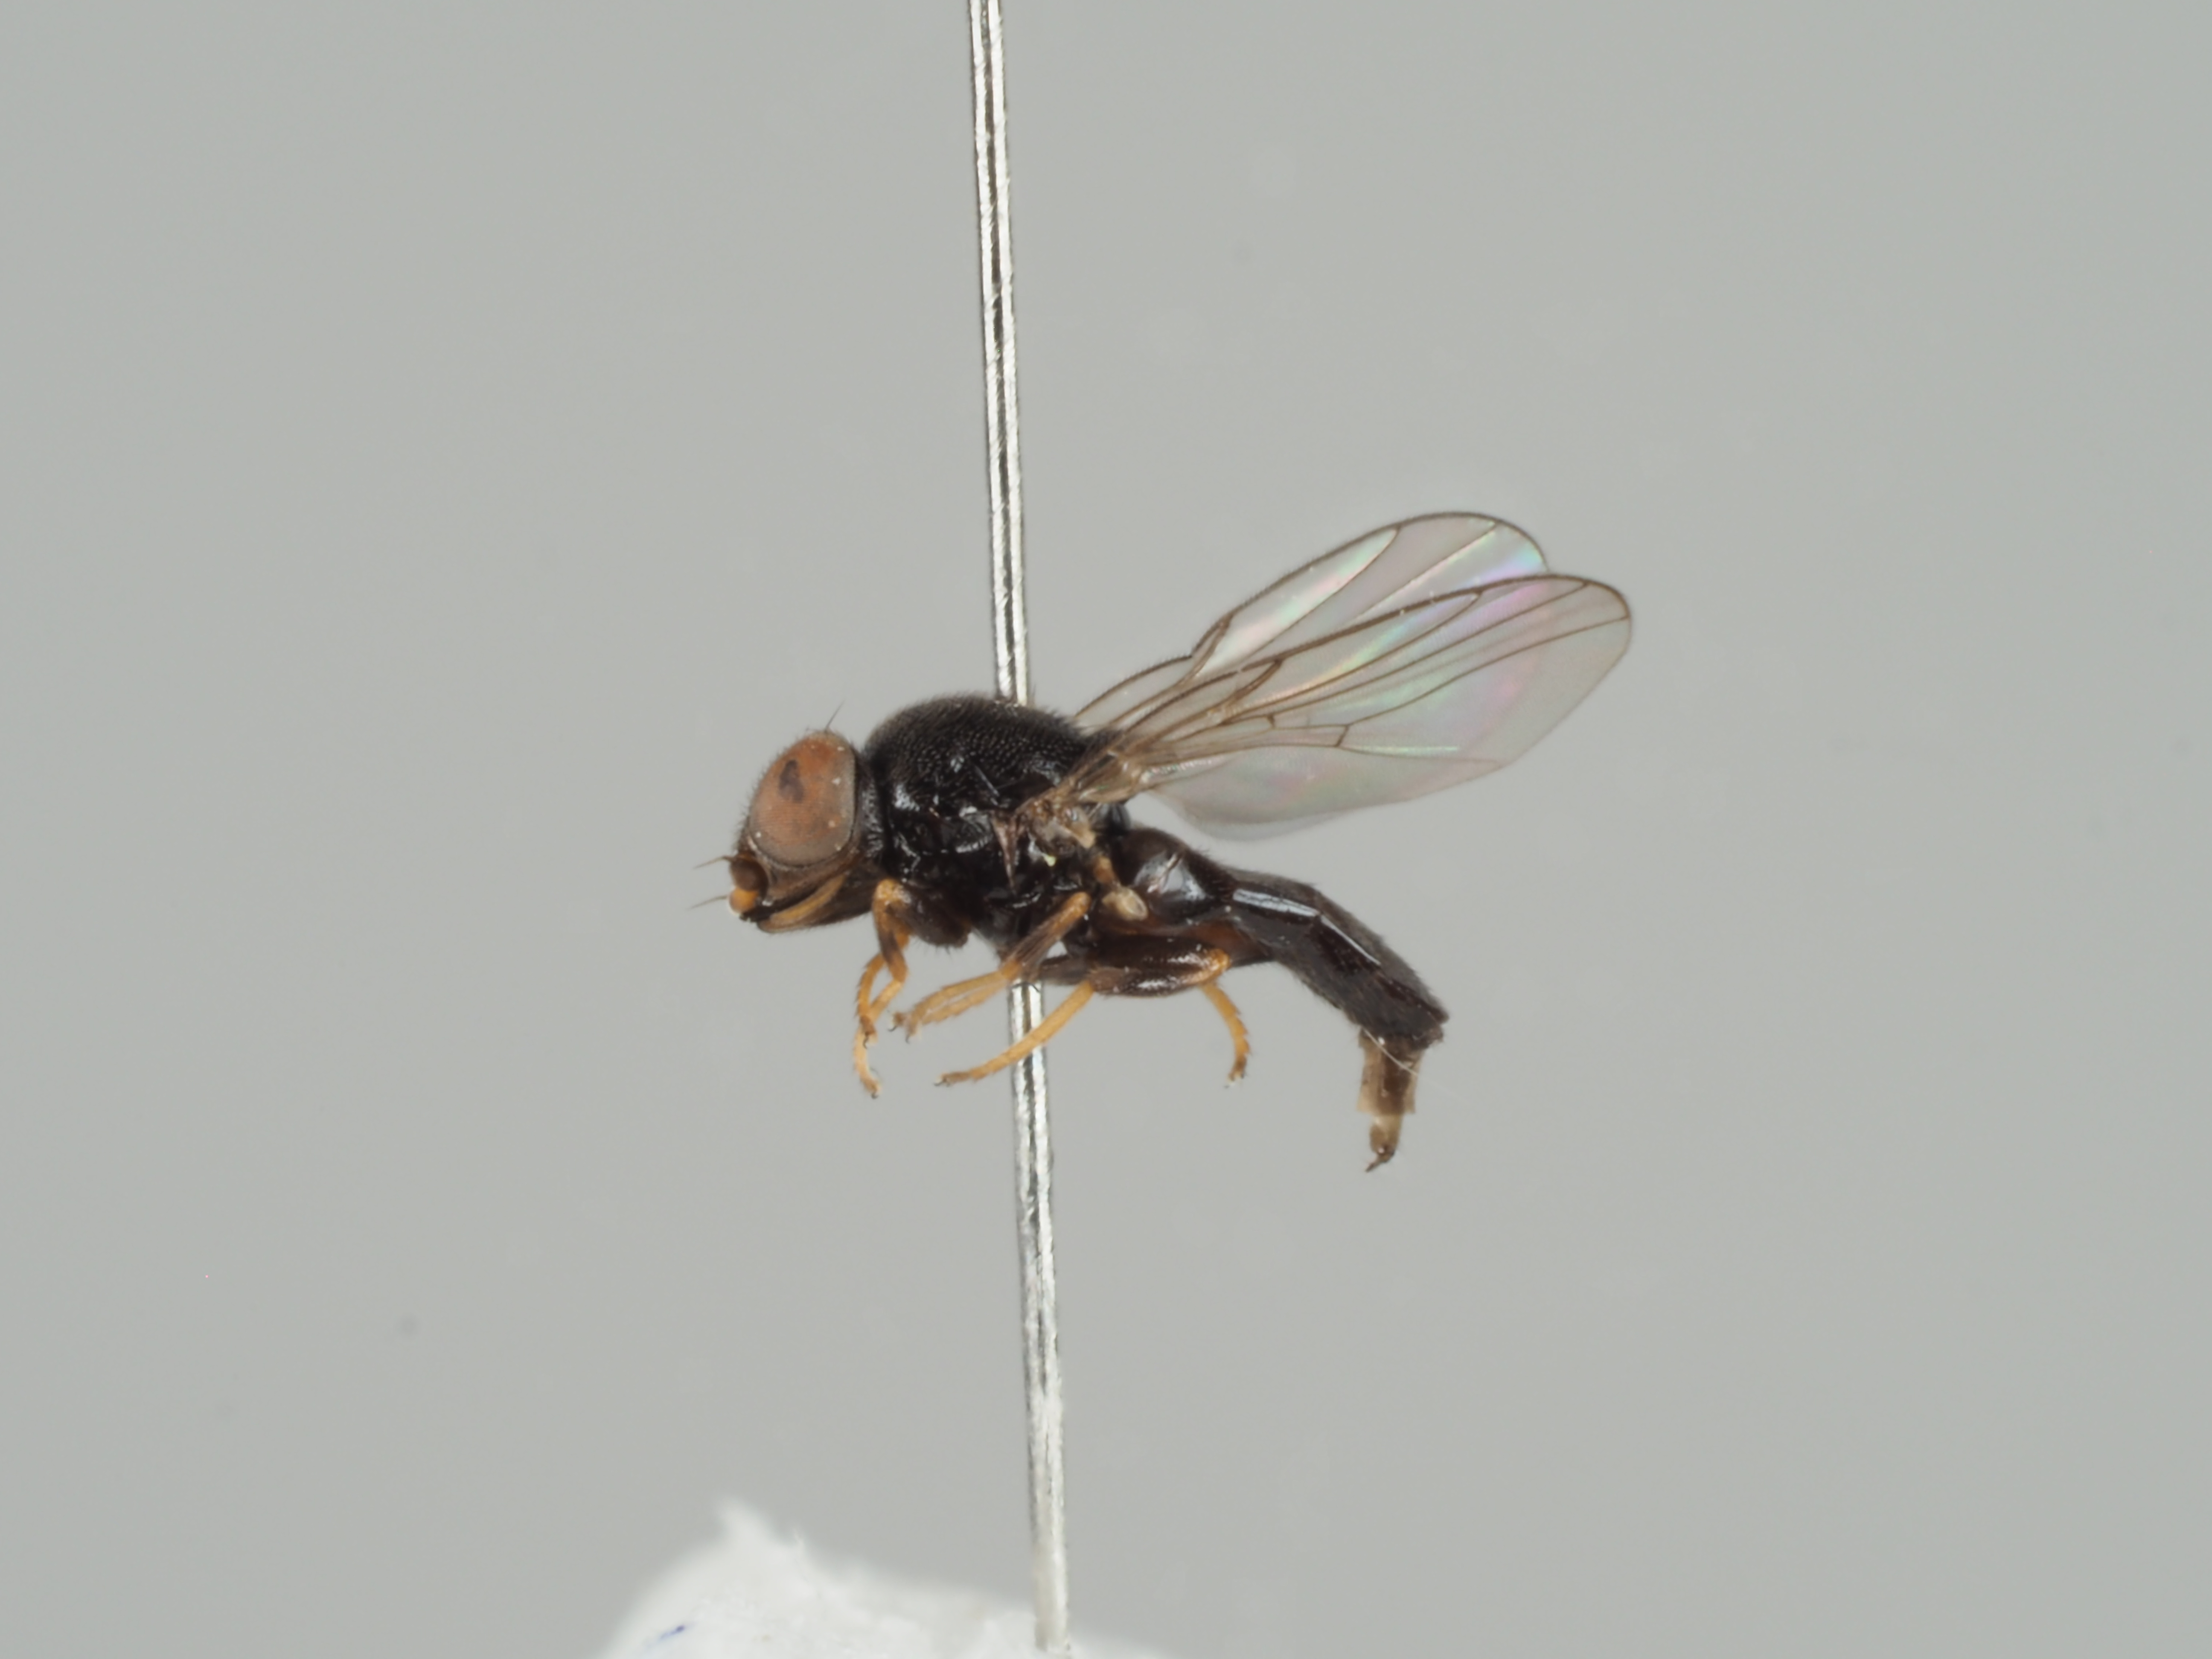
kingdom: Animalia
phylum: Arthropoda
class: Insecta
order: Diptera
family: Chloropidae
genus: Siphonella
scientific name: Siphonella oscinina
